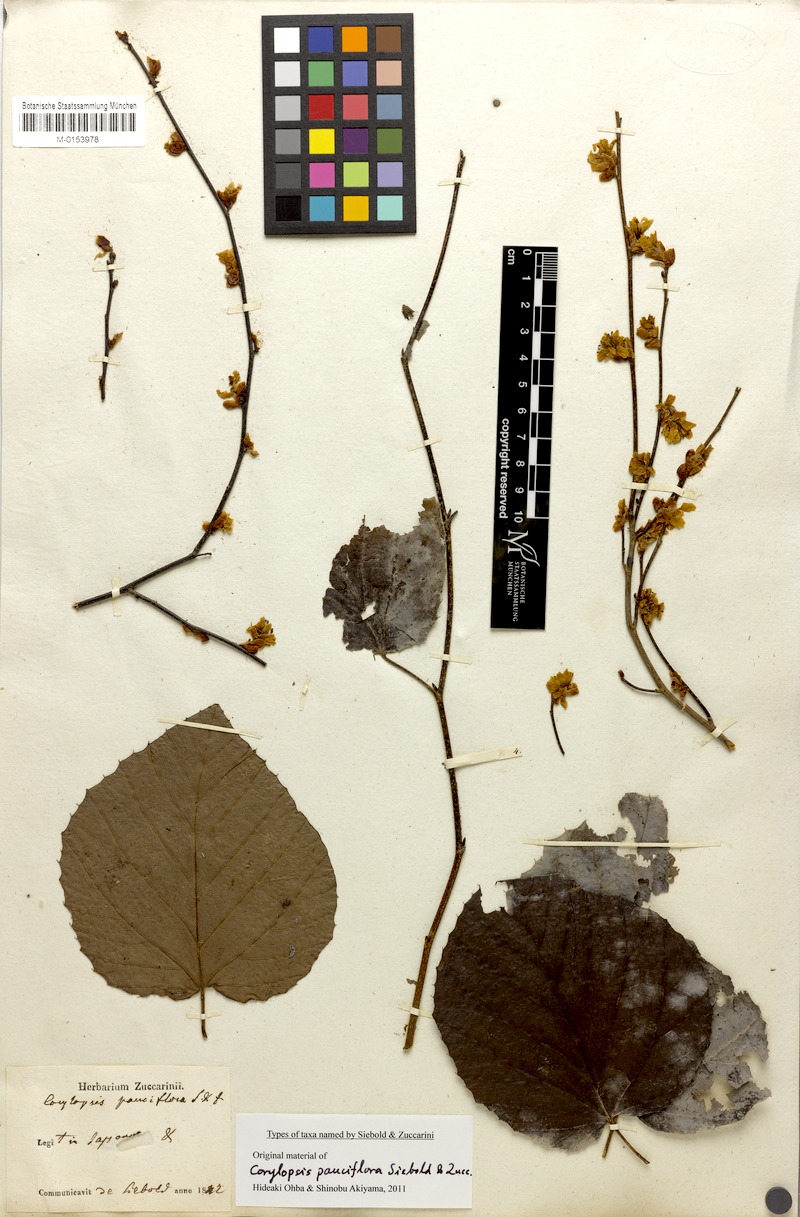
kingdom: Plantae
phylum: Tracheophyta
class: Magnoliopsida
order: Saxifragales
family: Hamamelidaceae
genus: Corylopsis
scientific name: Corylopsis pauciflora
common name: Buttercup winter-hazel
